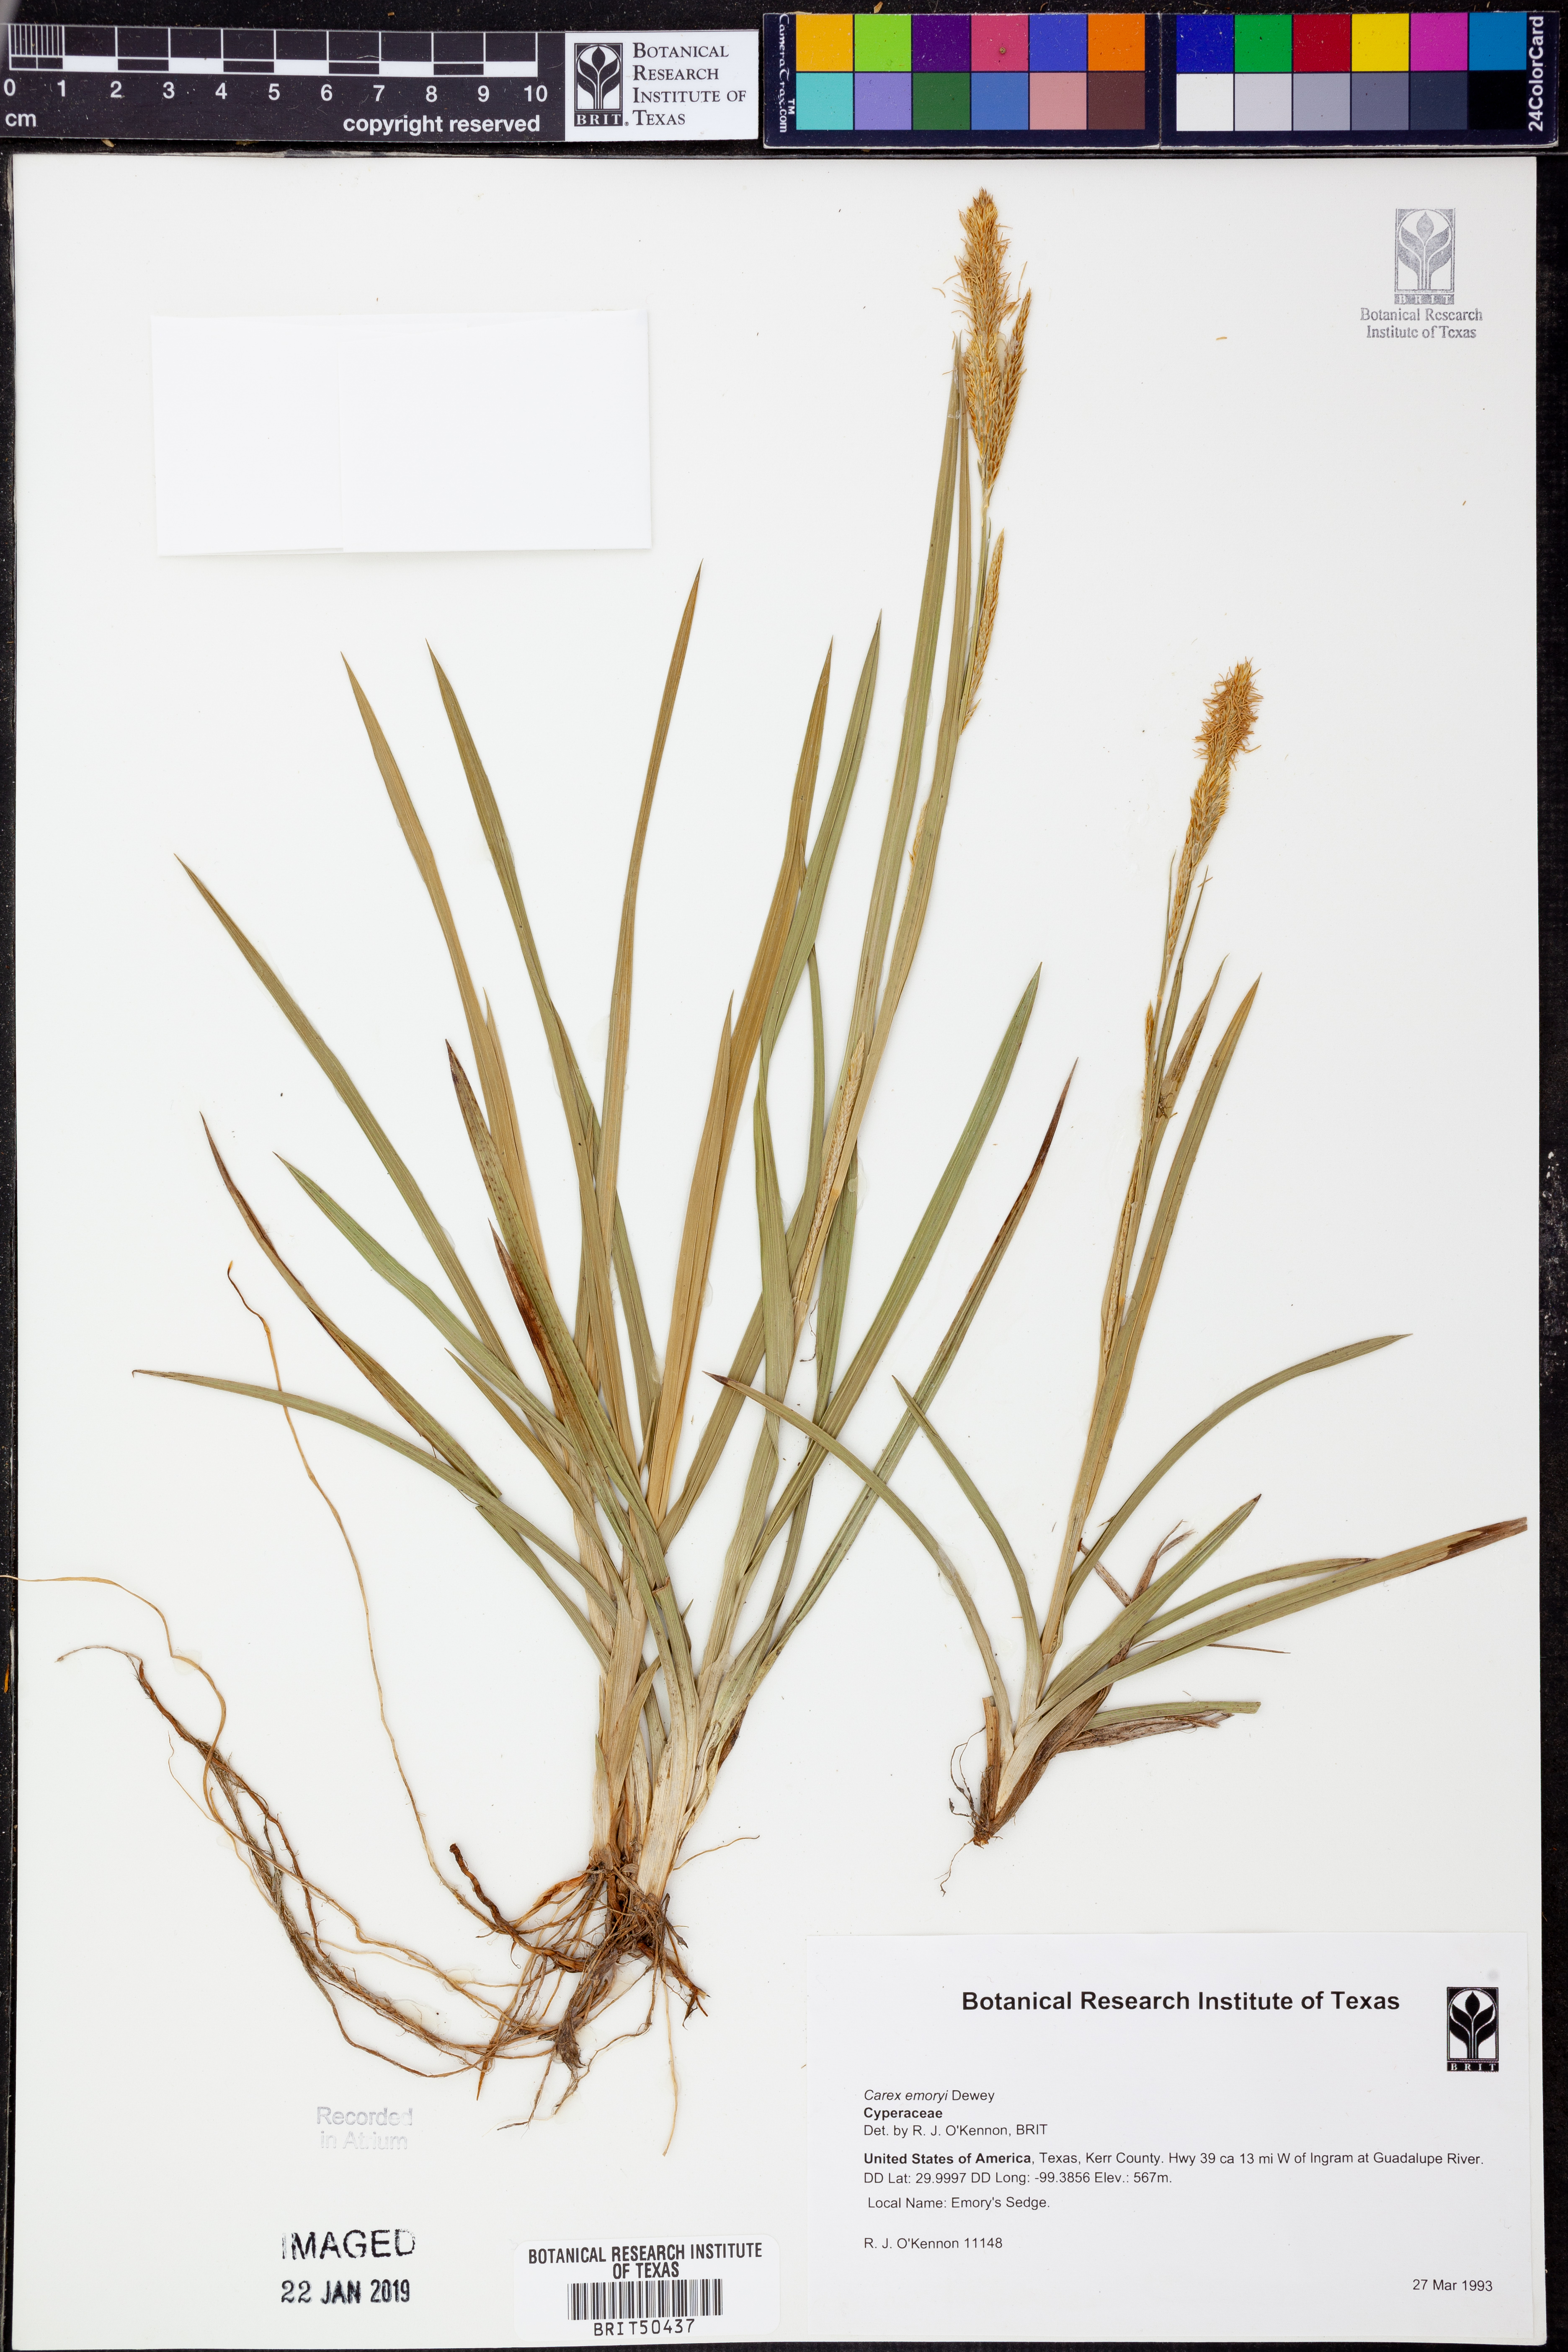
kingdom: Plantae
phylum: Tracheophyta
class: Liliopsida
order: Poales
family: Cyperaceae
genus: Carex
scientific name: Carex emoryi
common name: Emory's sedge
